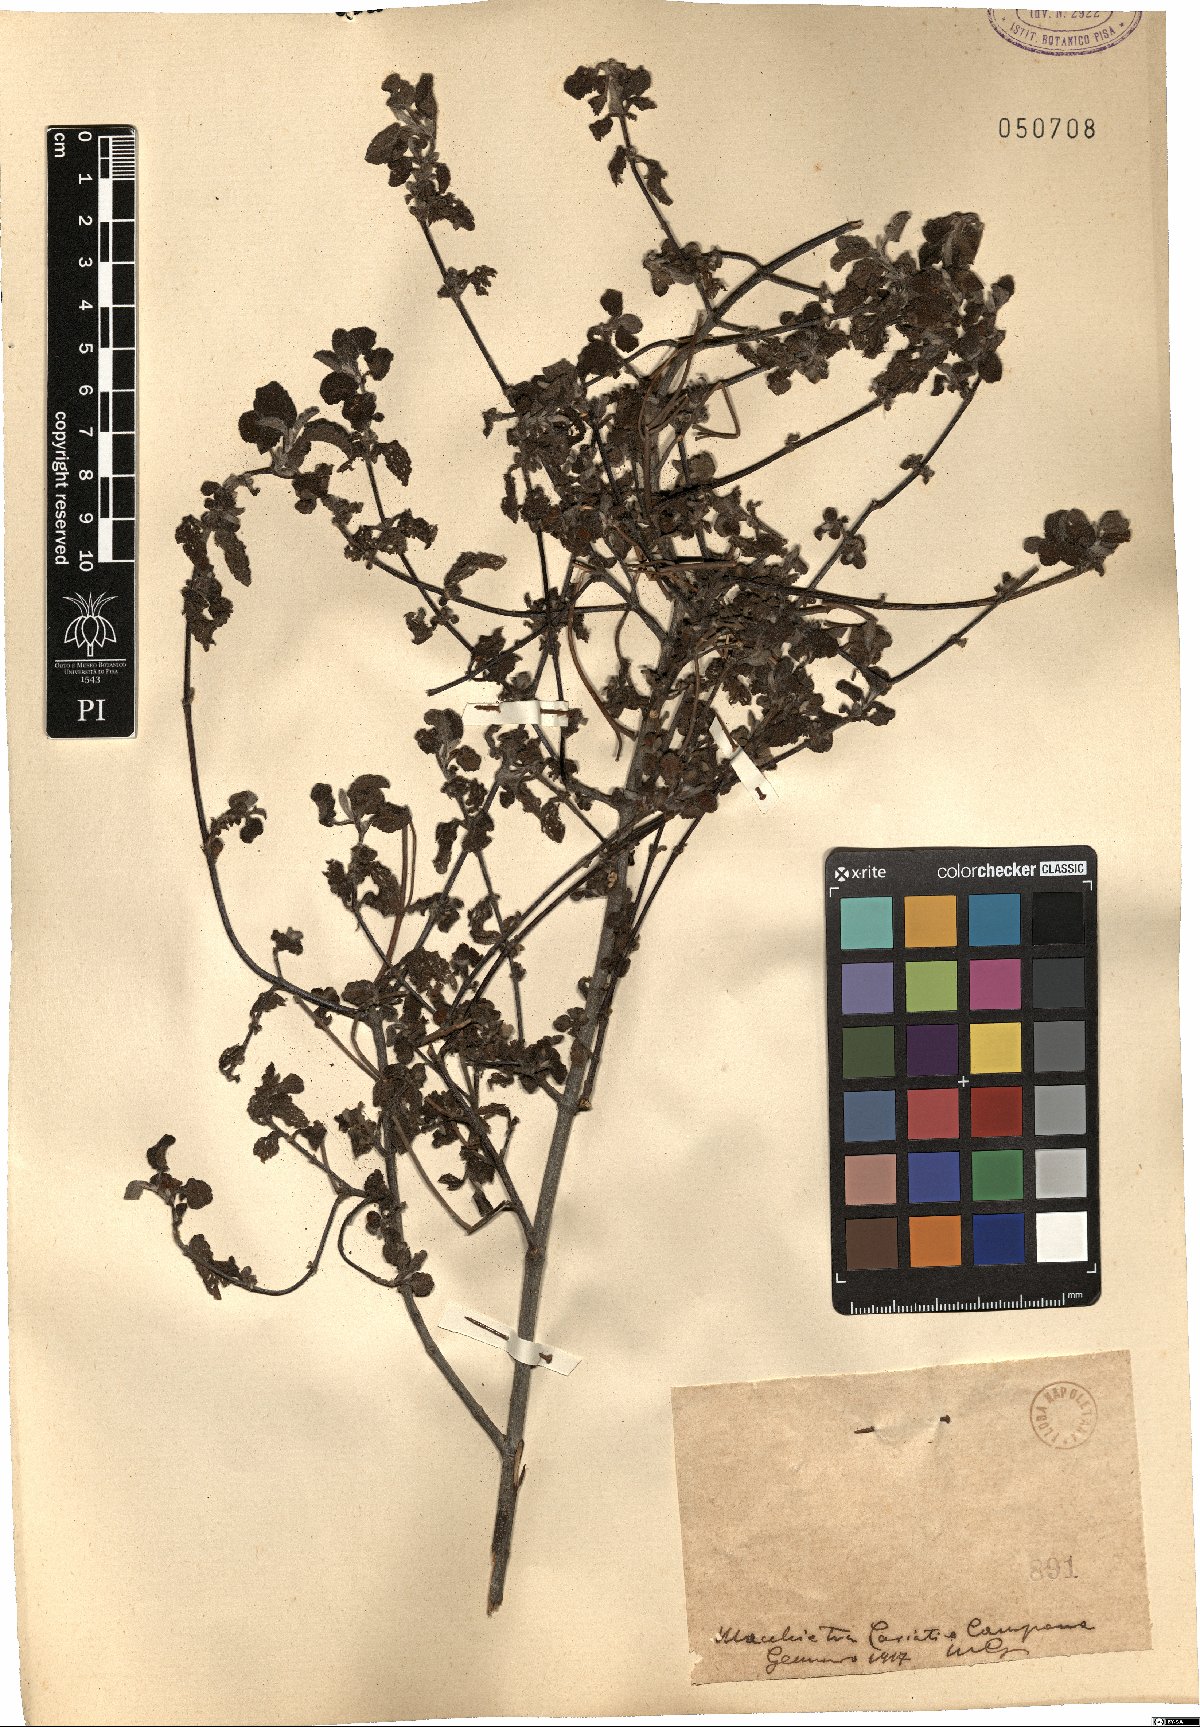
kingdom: Plantae
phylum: Tracheophyta
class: Magnoliopsida
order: Malvales
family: Cistaceae
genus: Cistus
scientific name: Cistus
